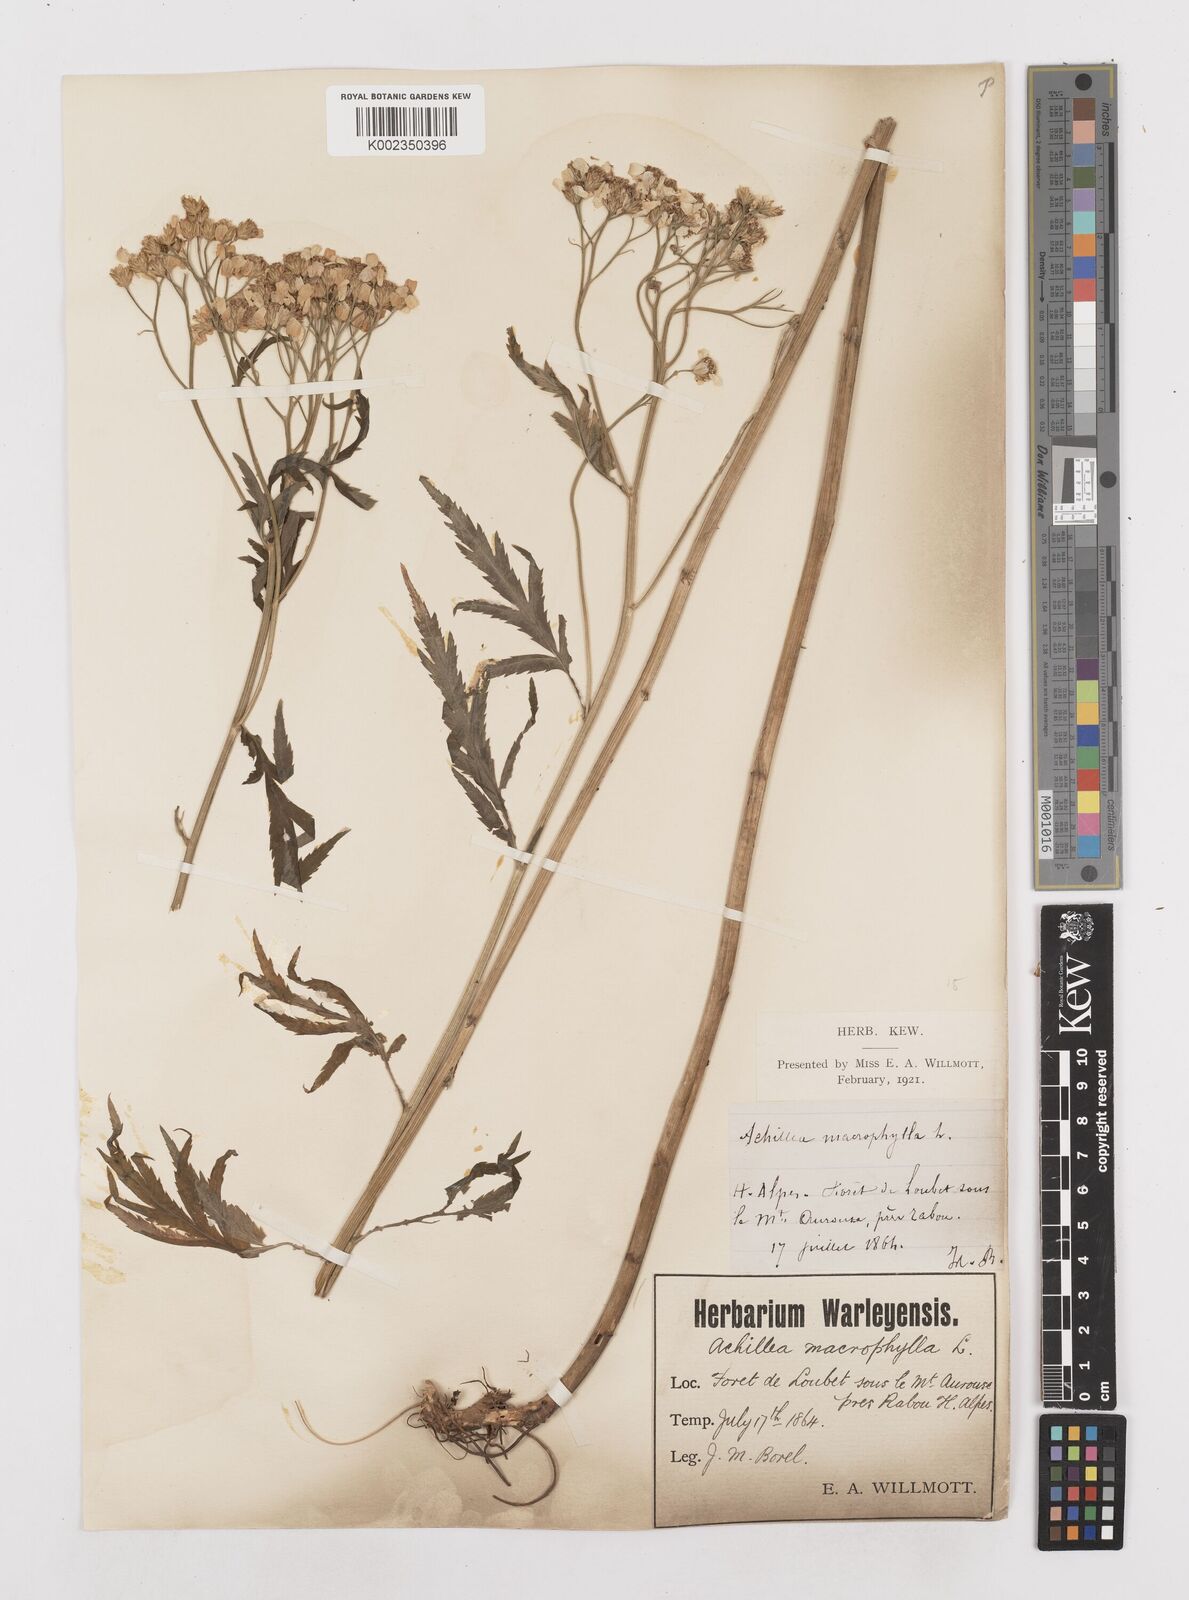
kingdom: Plantae
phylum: Tracheophyta
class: Magnoliopsida
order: Asterales
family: Asteraceae
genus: Achillea
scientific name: Achillea macrophylla
